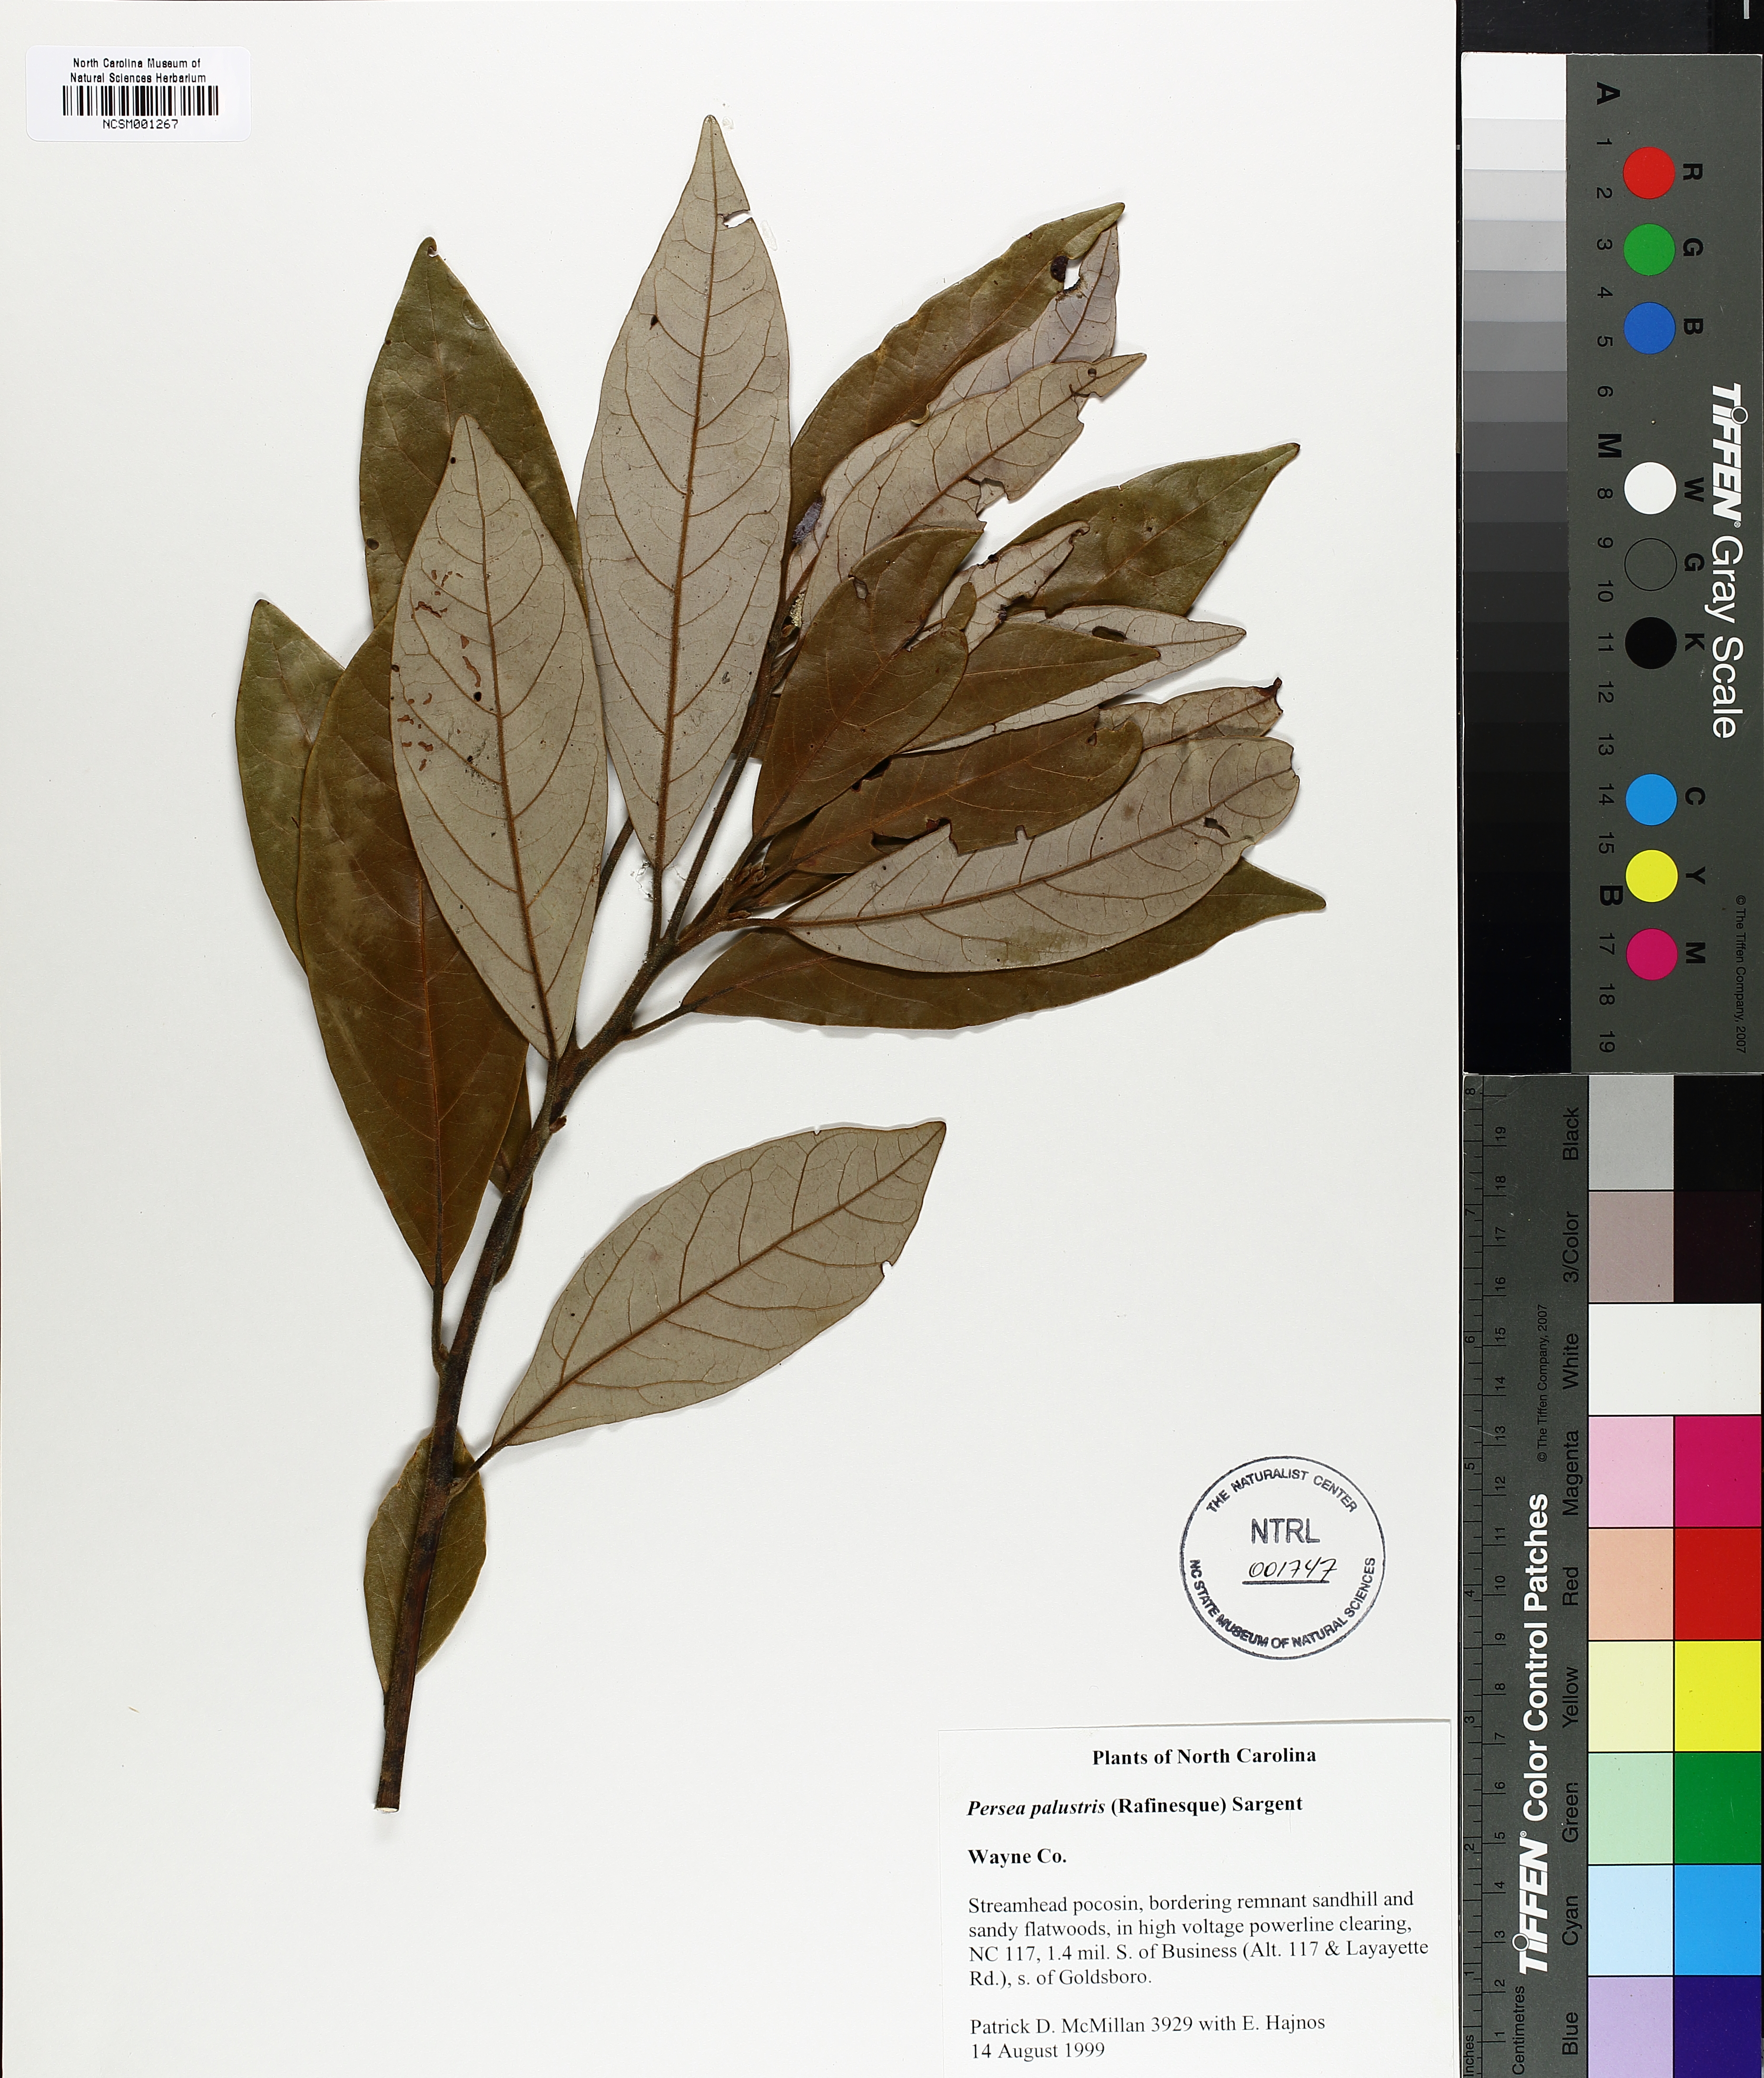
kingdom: Plantae
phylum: Tracheophyta
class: Magnoliopsida
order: Laurales
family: Lauraceae
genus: Persea
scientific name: Persea palustris
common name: Swampbay
